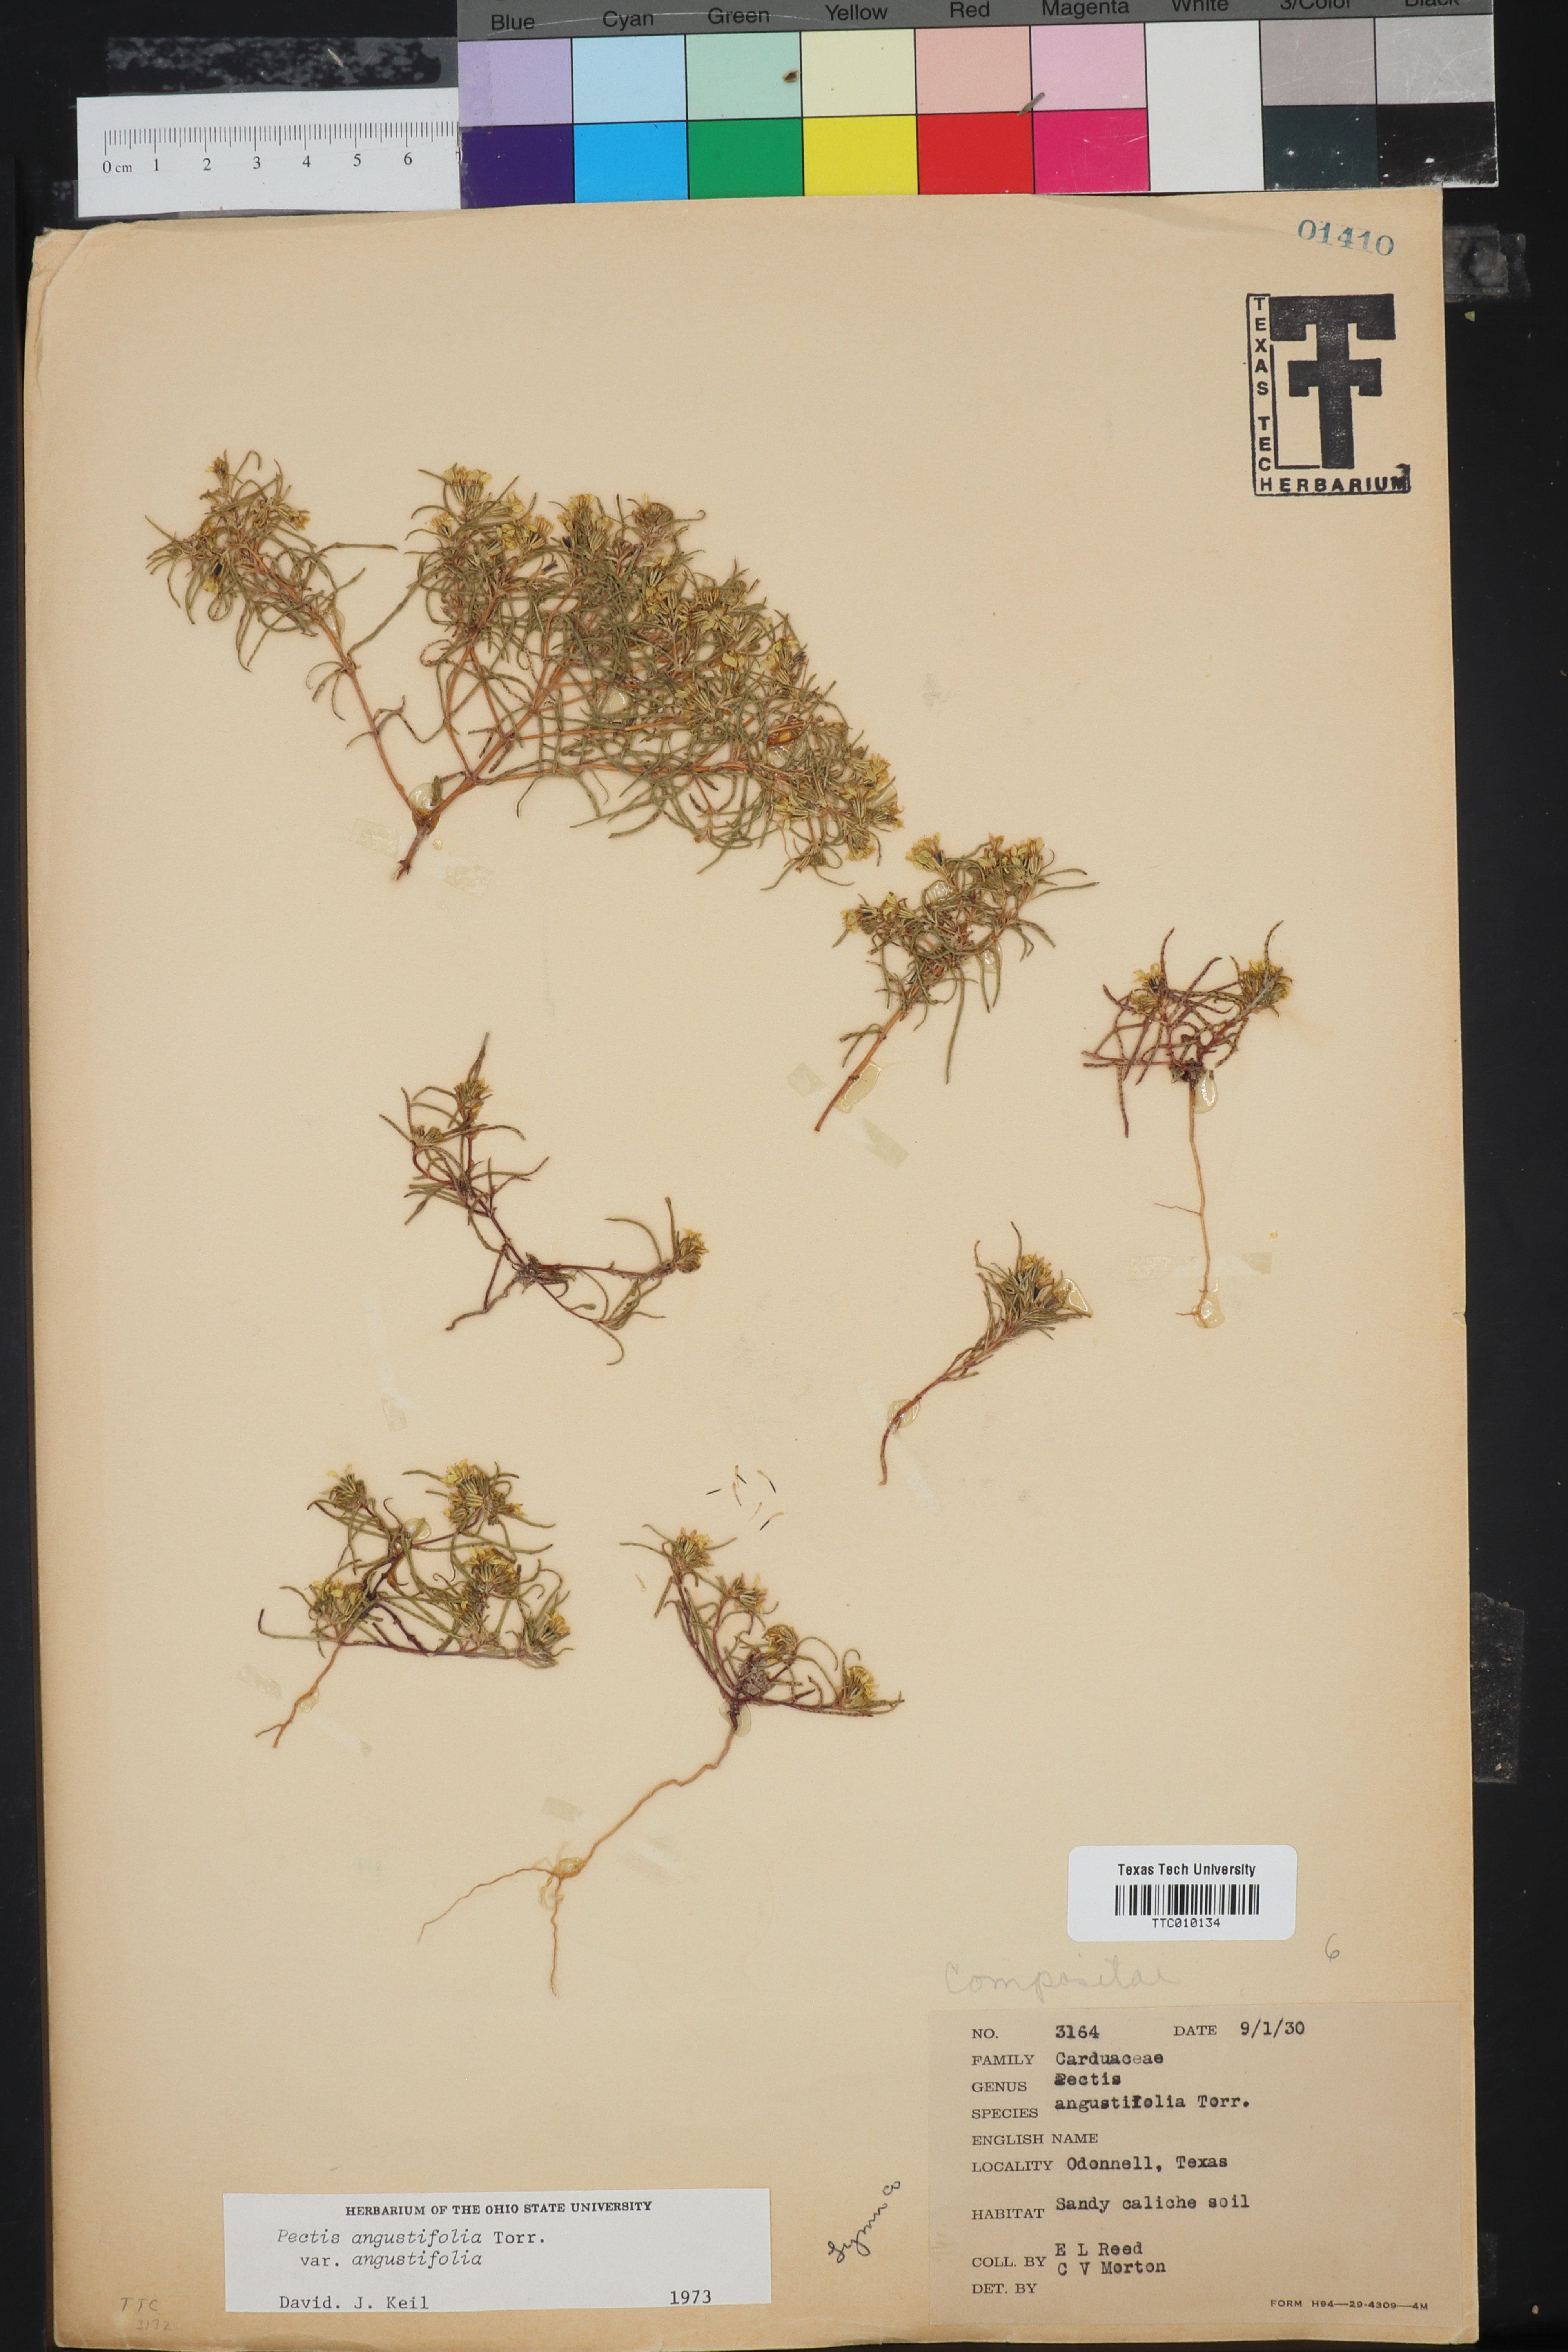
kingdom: Plantae
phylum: Tracheophyta
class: Magnoliopsida
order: Asterales
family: Asteraceae
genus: Pectis
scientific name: Pectis angustifolia
